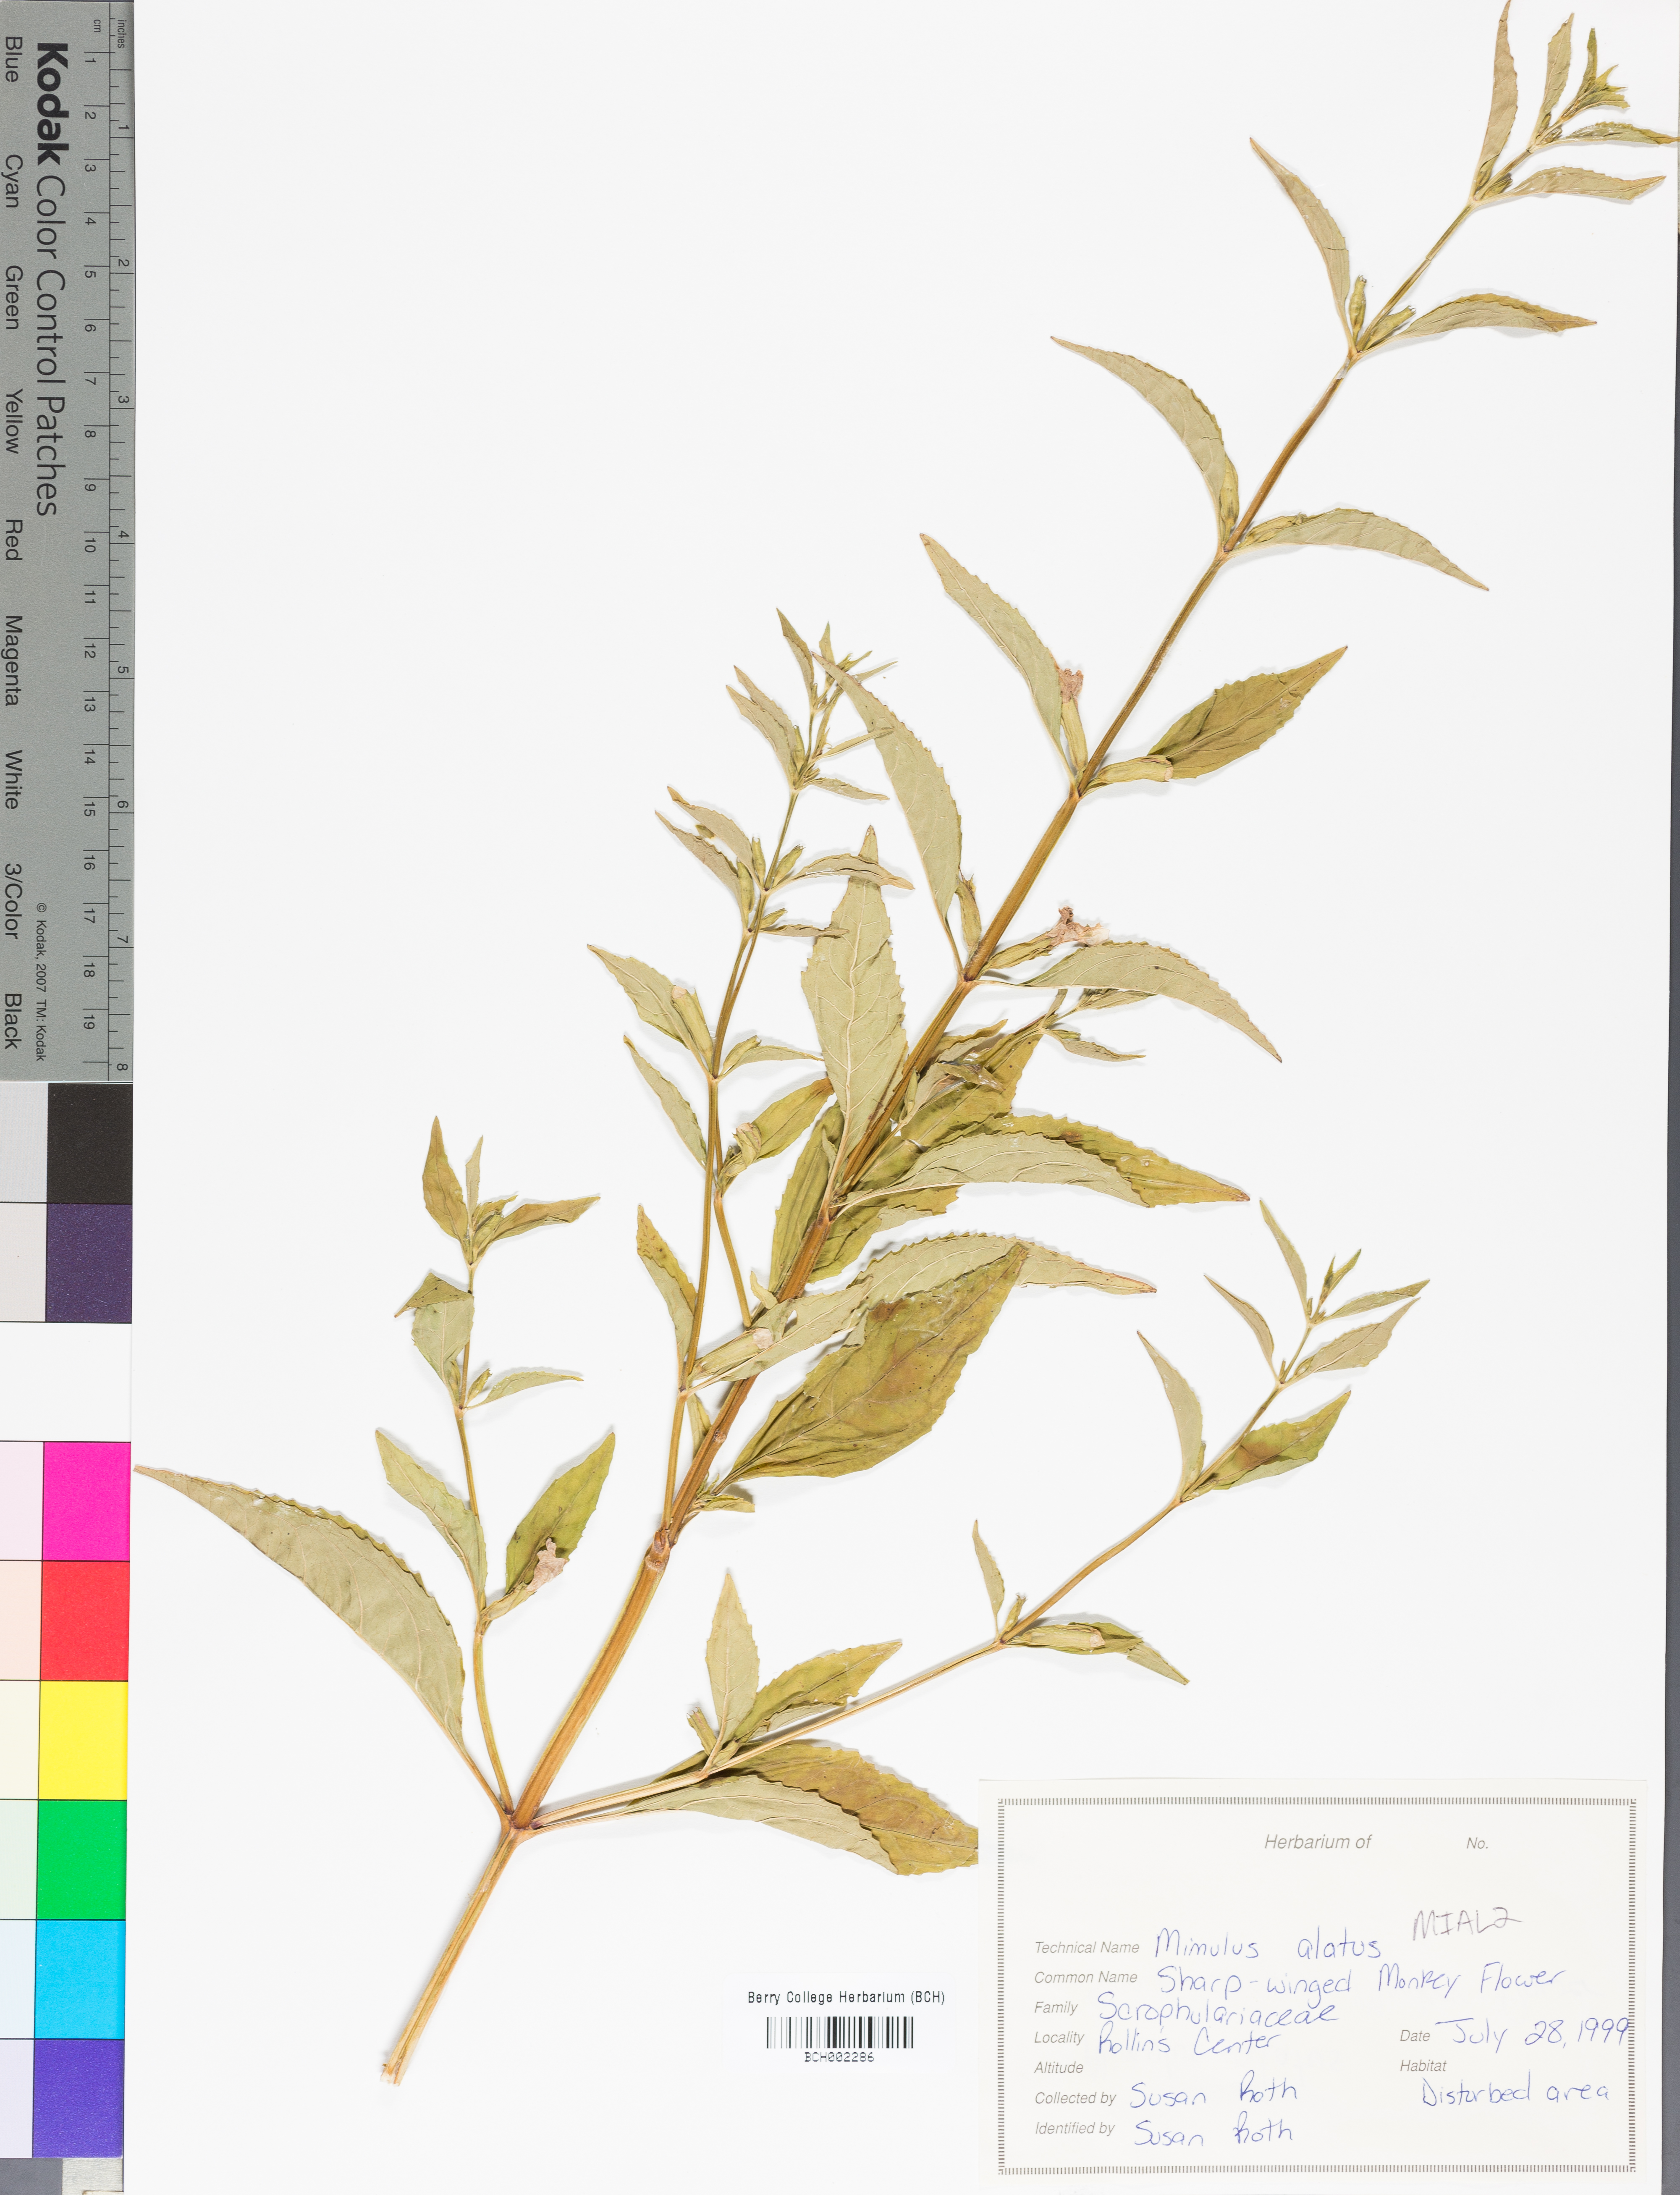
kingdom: Plantae
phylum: Tracheophyta
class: Magnoliopsida
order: Lamiales
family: Phrymaceae
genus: Mimulus
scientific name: Mimulus alatus
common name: Sharp-wing monkey-flower
